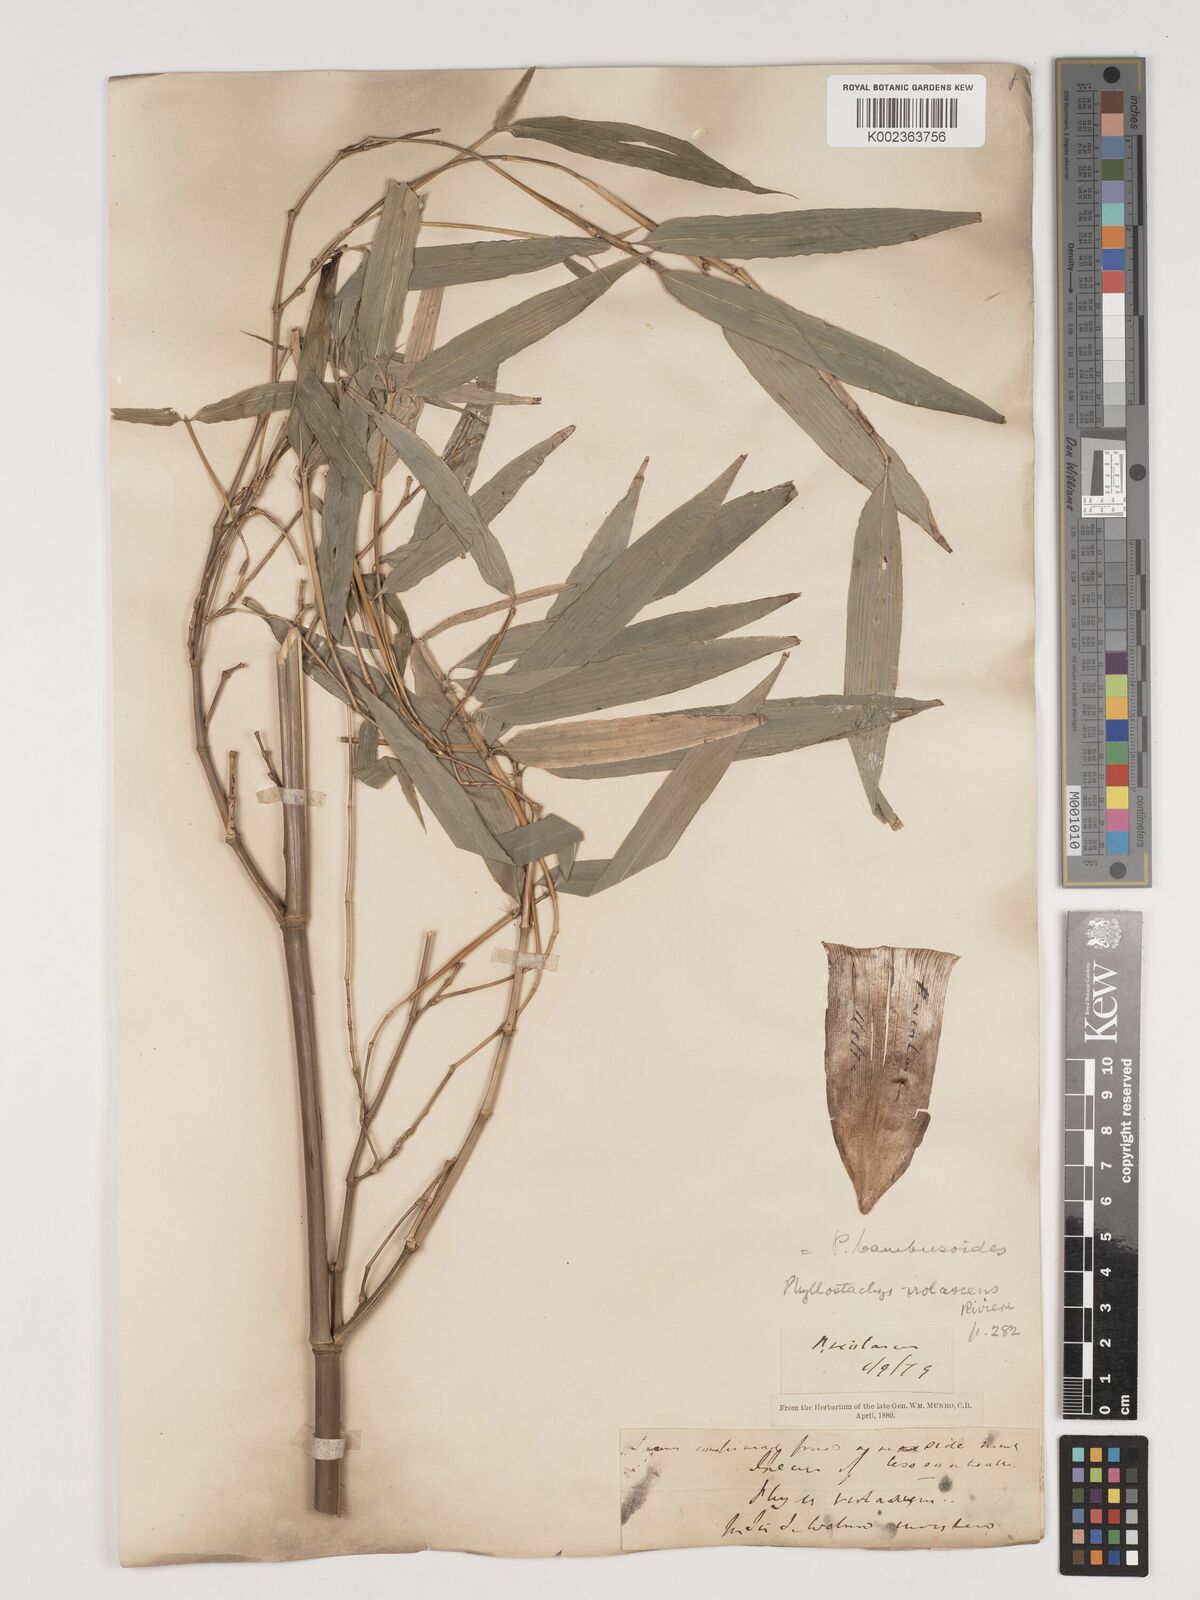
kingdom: Plantae
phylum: Tracheophyta
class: Liliopsida
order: Poales
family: Poaceae
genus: Phyllostachys
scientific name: Phyllostachys reticulata
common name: Bamboo
